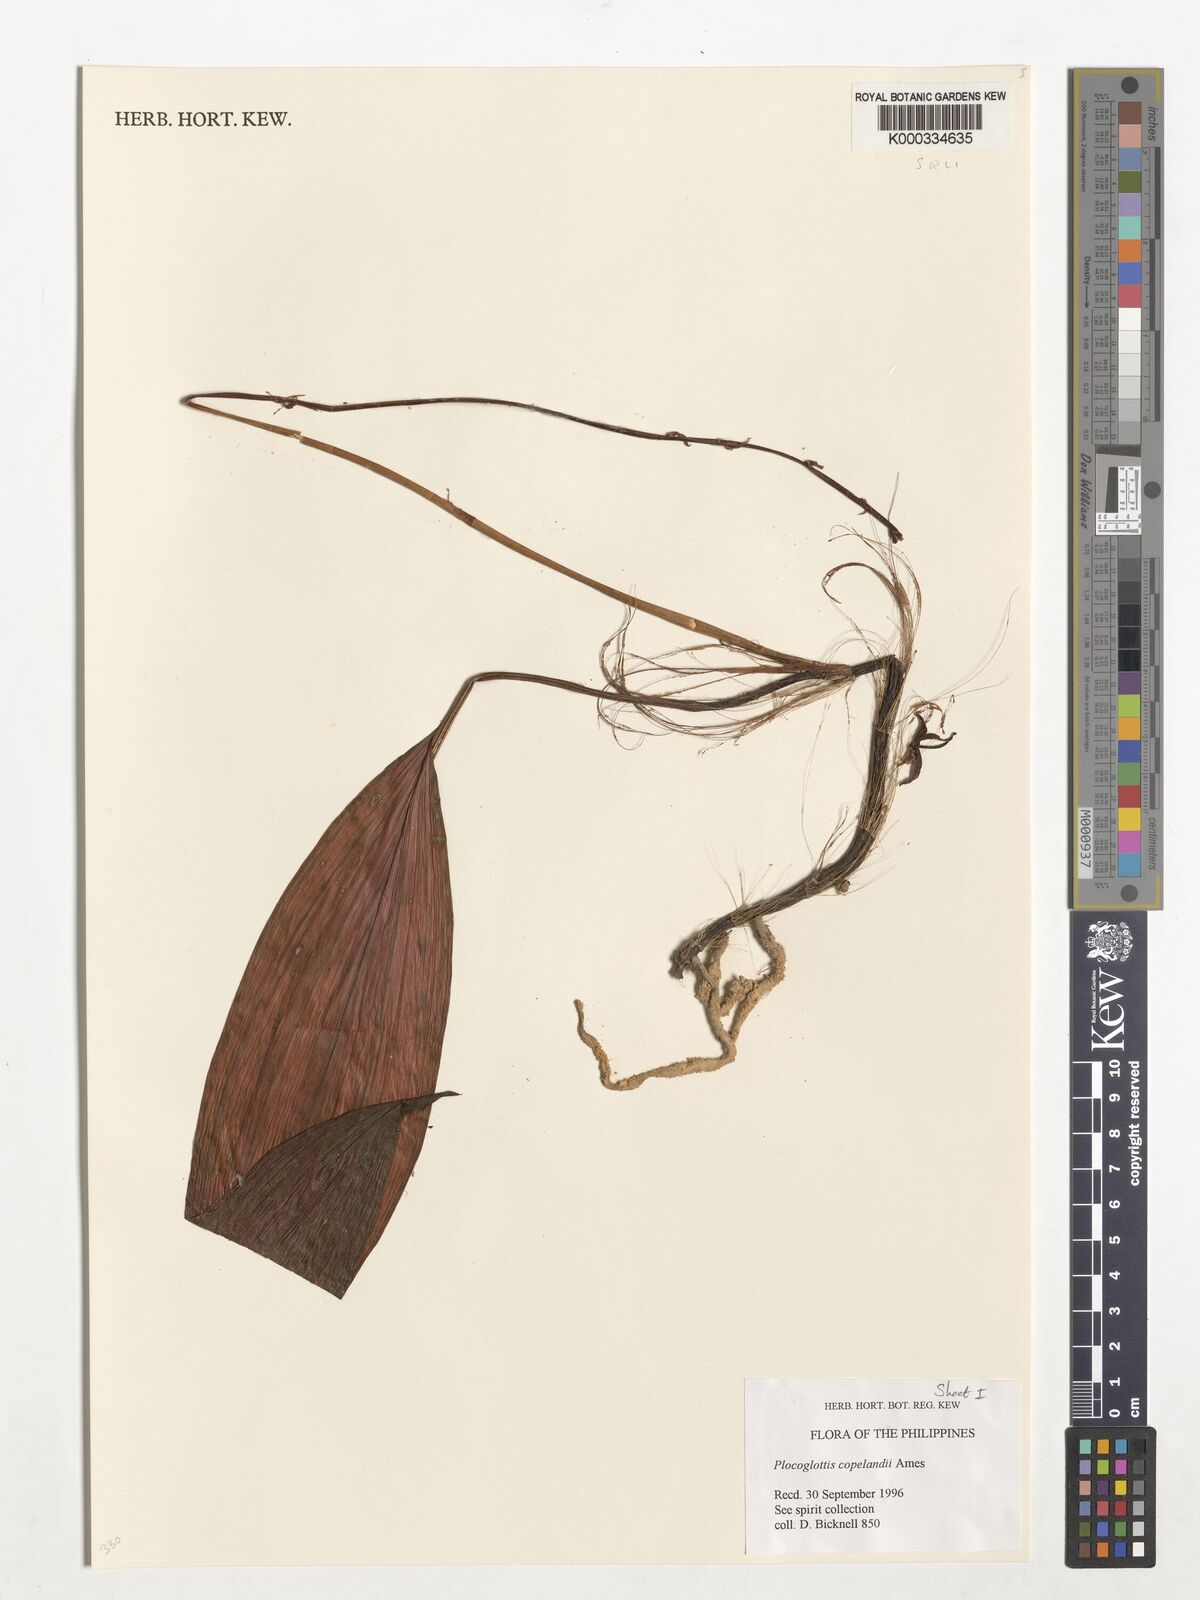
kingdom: Plantae
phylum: Tracheophyta
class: Liliopsida
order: Asparagales
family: Orchidaceae
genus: Plocoglottis
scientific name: Plocoglottis copelandii
